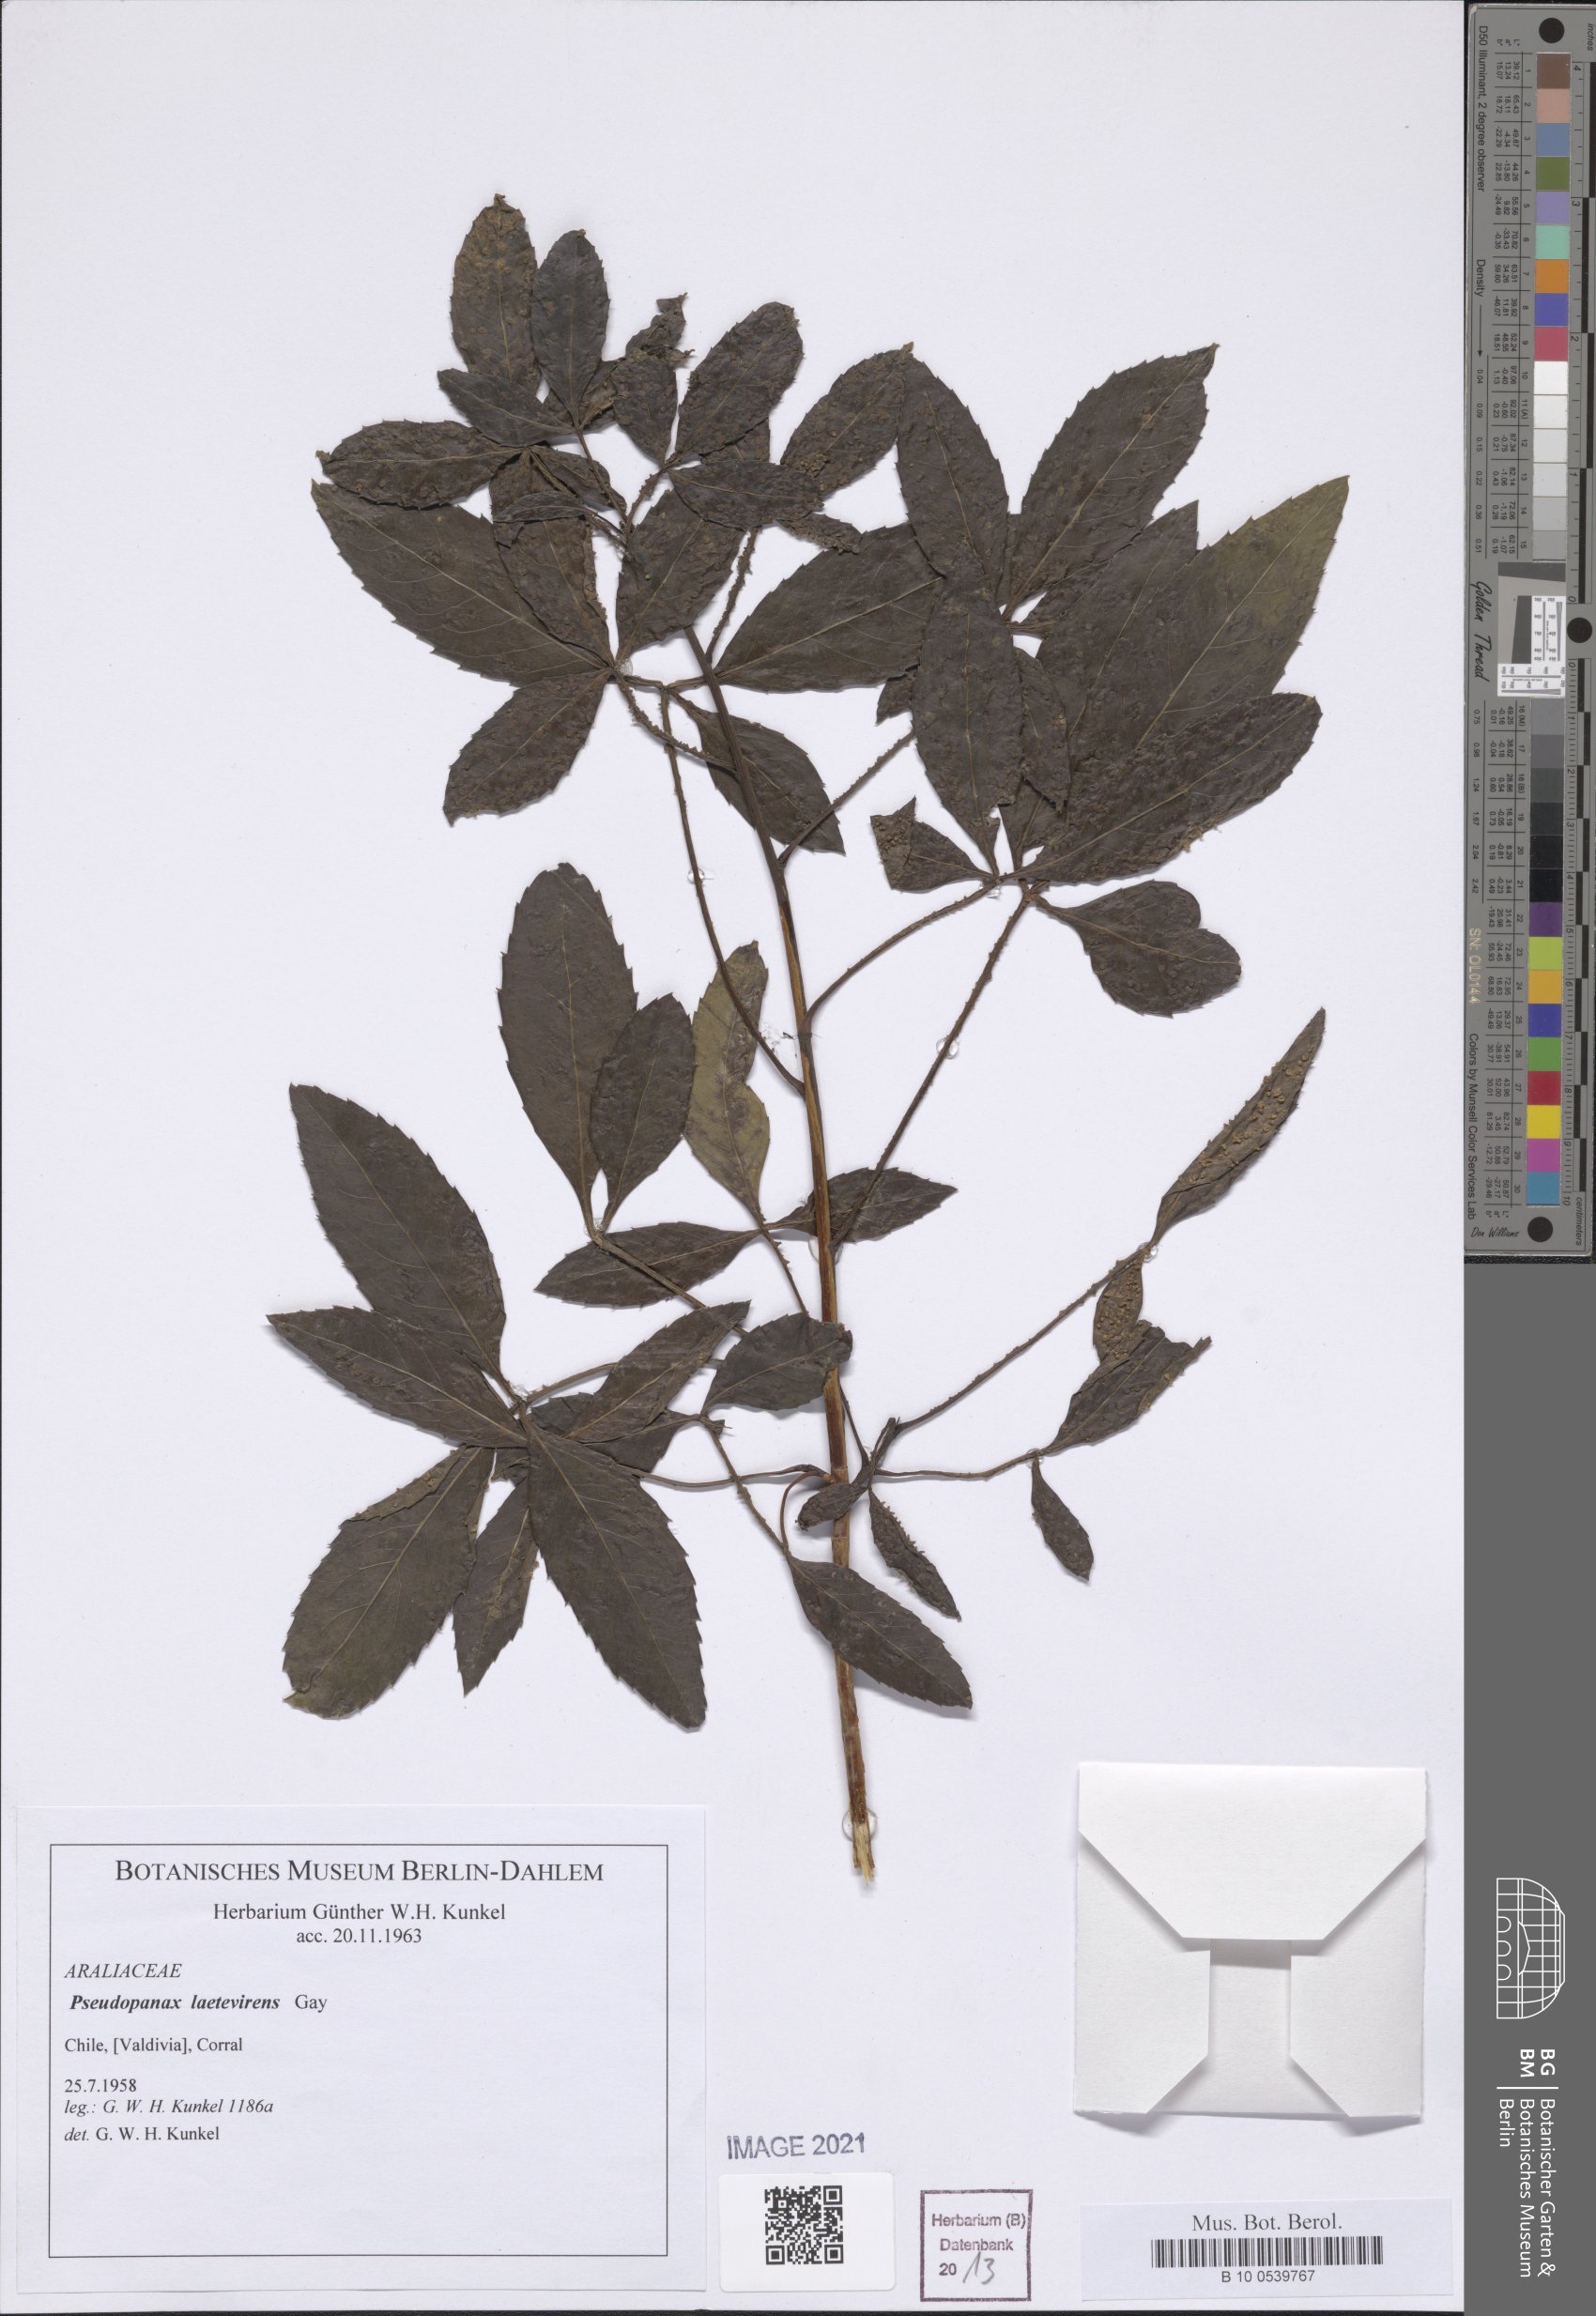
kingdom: Plantae
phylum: Tracheophyta
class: Magnoliopsida
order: Apiales
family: Araliaceae
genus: Raukaua
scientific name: Raukaua laetevirens
